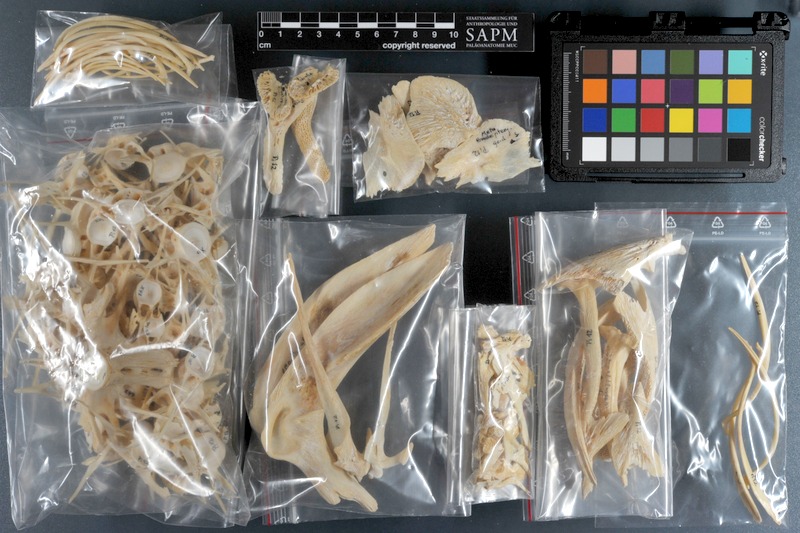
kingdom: Animalia
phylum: Chordata
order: Siluriformes
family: Siluridae
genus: Silurus
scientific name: Silurus glanis
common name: Wels
